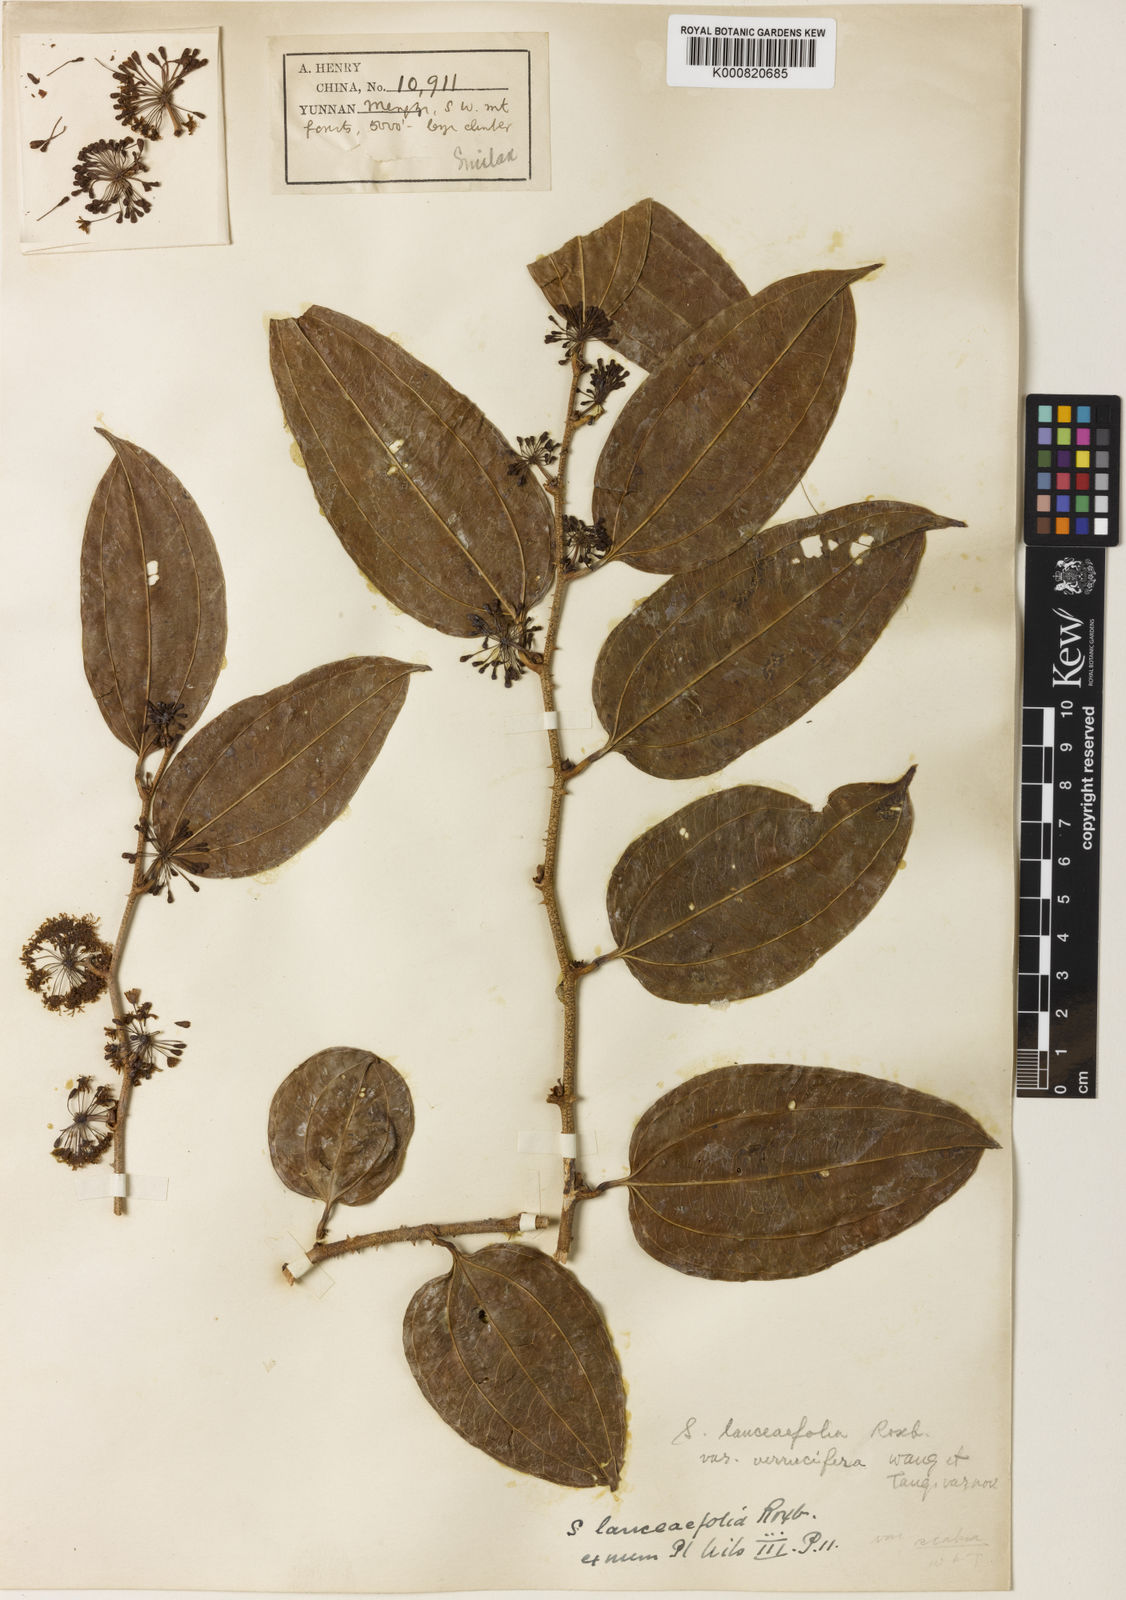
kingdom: Plantae
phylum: Tracheophyta
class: Liliopsida
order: Liliales
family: Smilacaceae
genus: Smilax
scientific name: Smilax lanceifolia
